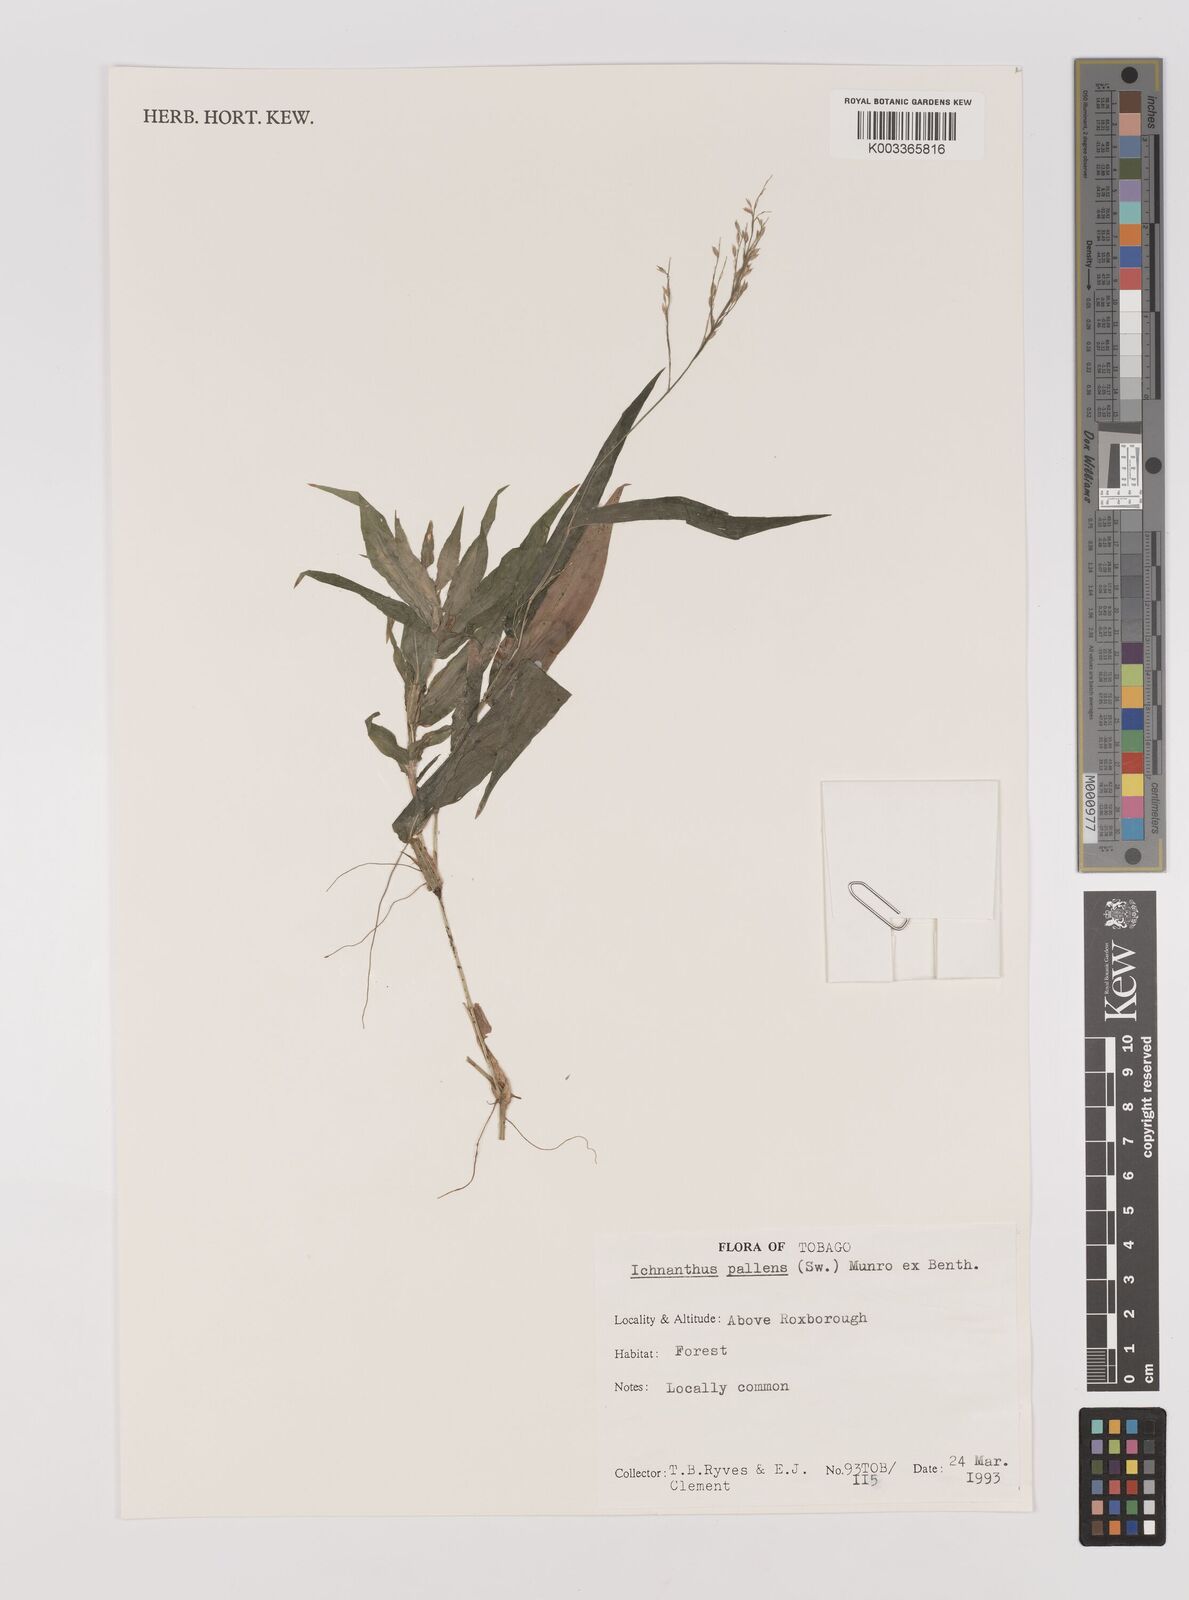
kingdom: Plantae
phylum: Tracheophyta
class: Liliopsida
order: Poales
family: Poaceae
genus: Ichnanthus
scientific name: Ichnanthus pallens
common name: Water grass
